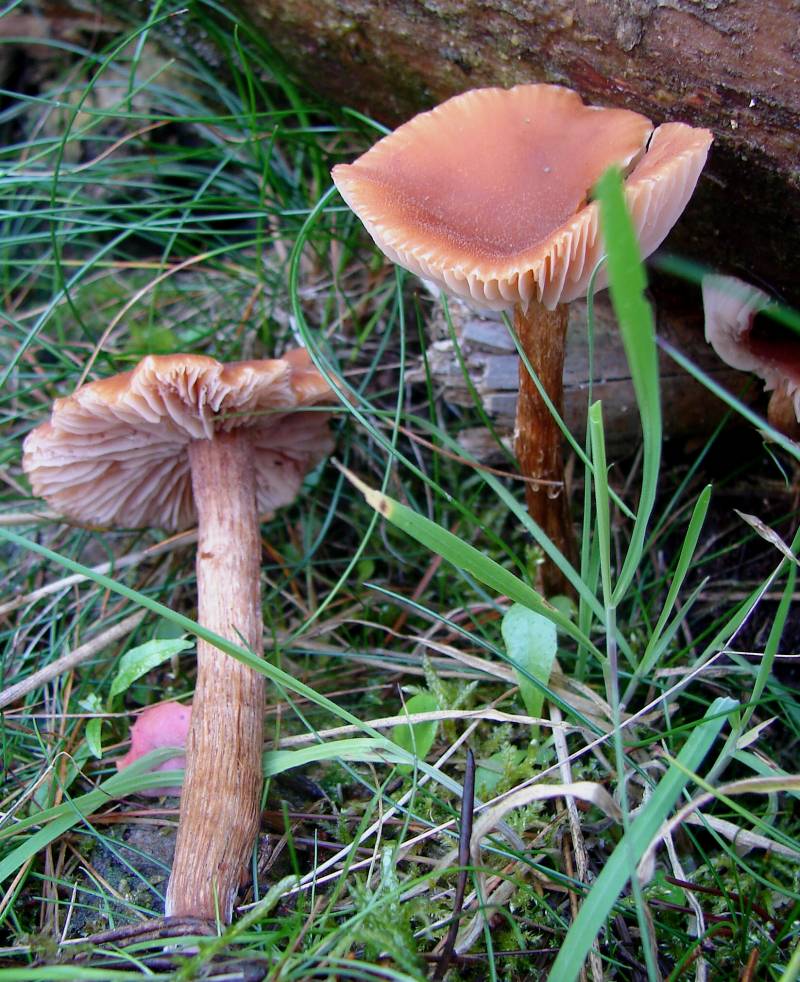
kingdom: Fungi
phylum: Basidiomycota
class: Agaricomycetes
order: Agaricales
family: Hydnangiaceae
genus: Laccaria
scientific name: Laccaria proxima
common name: stor ametysthat
